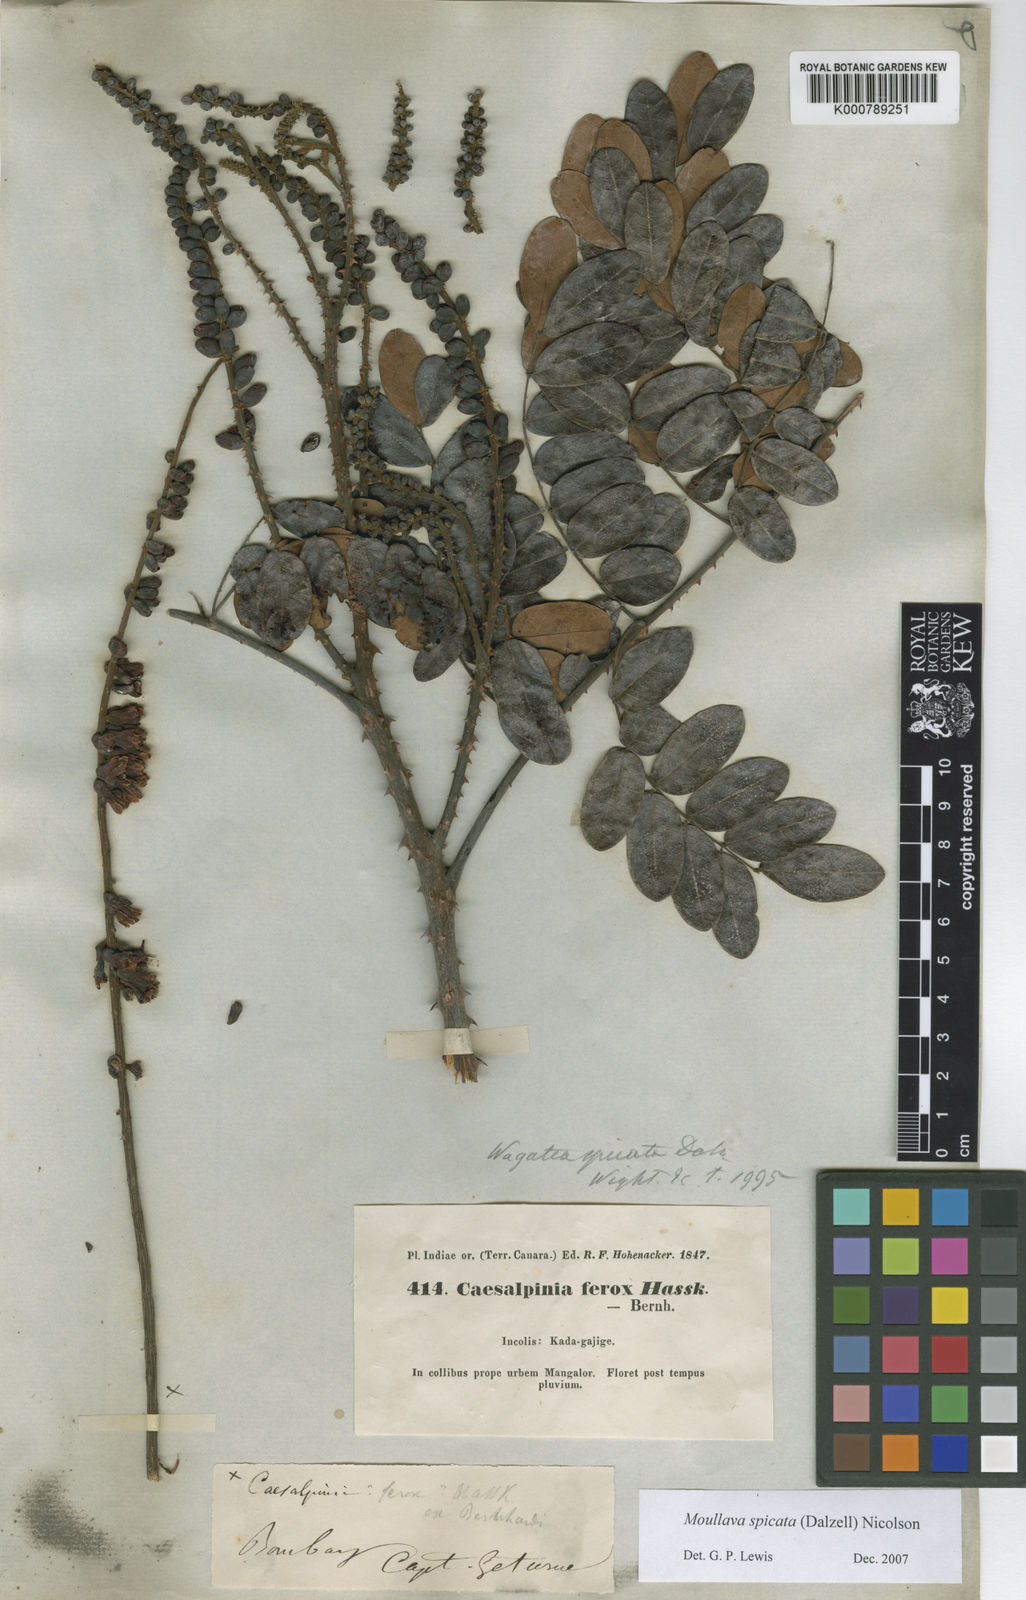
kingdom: Plantae
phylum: Tracheophyta
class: Magnoliopsida
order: Fabales
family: Fabaceae
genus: Moullava
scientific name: Moullava spicata
